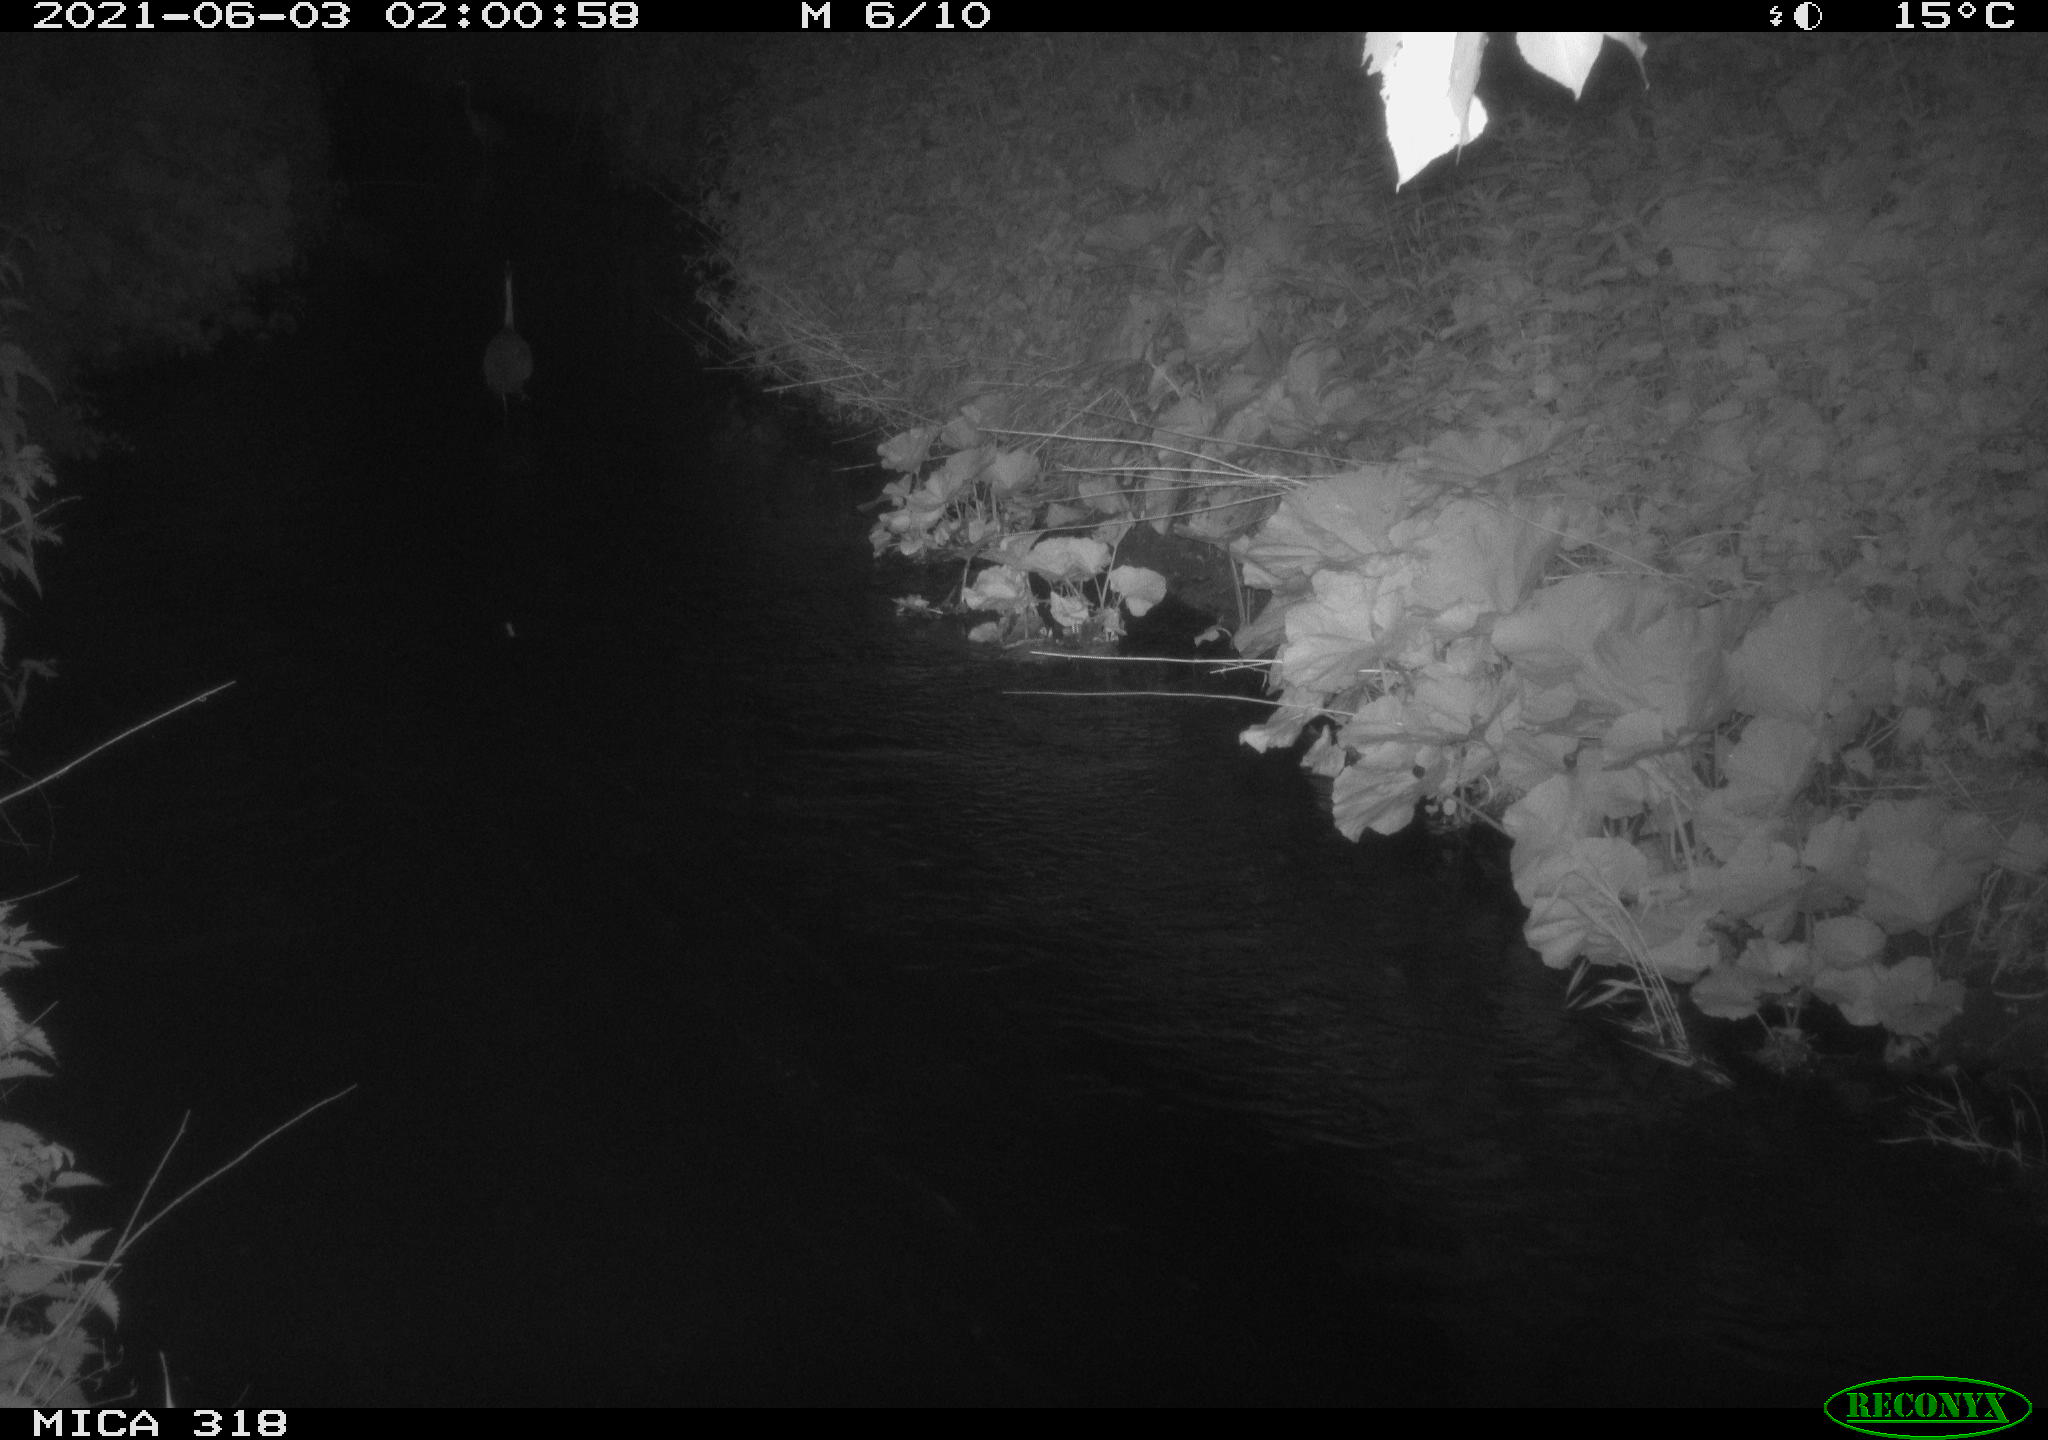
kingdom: Animalia
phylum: Chordata
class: Aves
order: Pelecaniformes
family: Ardeidae
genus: Ardea
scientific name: Ardea cinerea
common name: Grey heron
